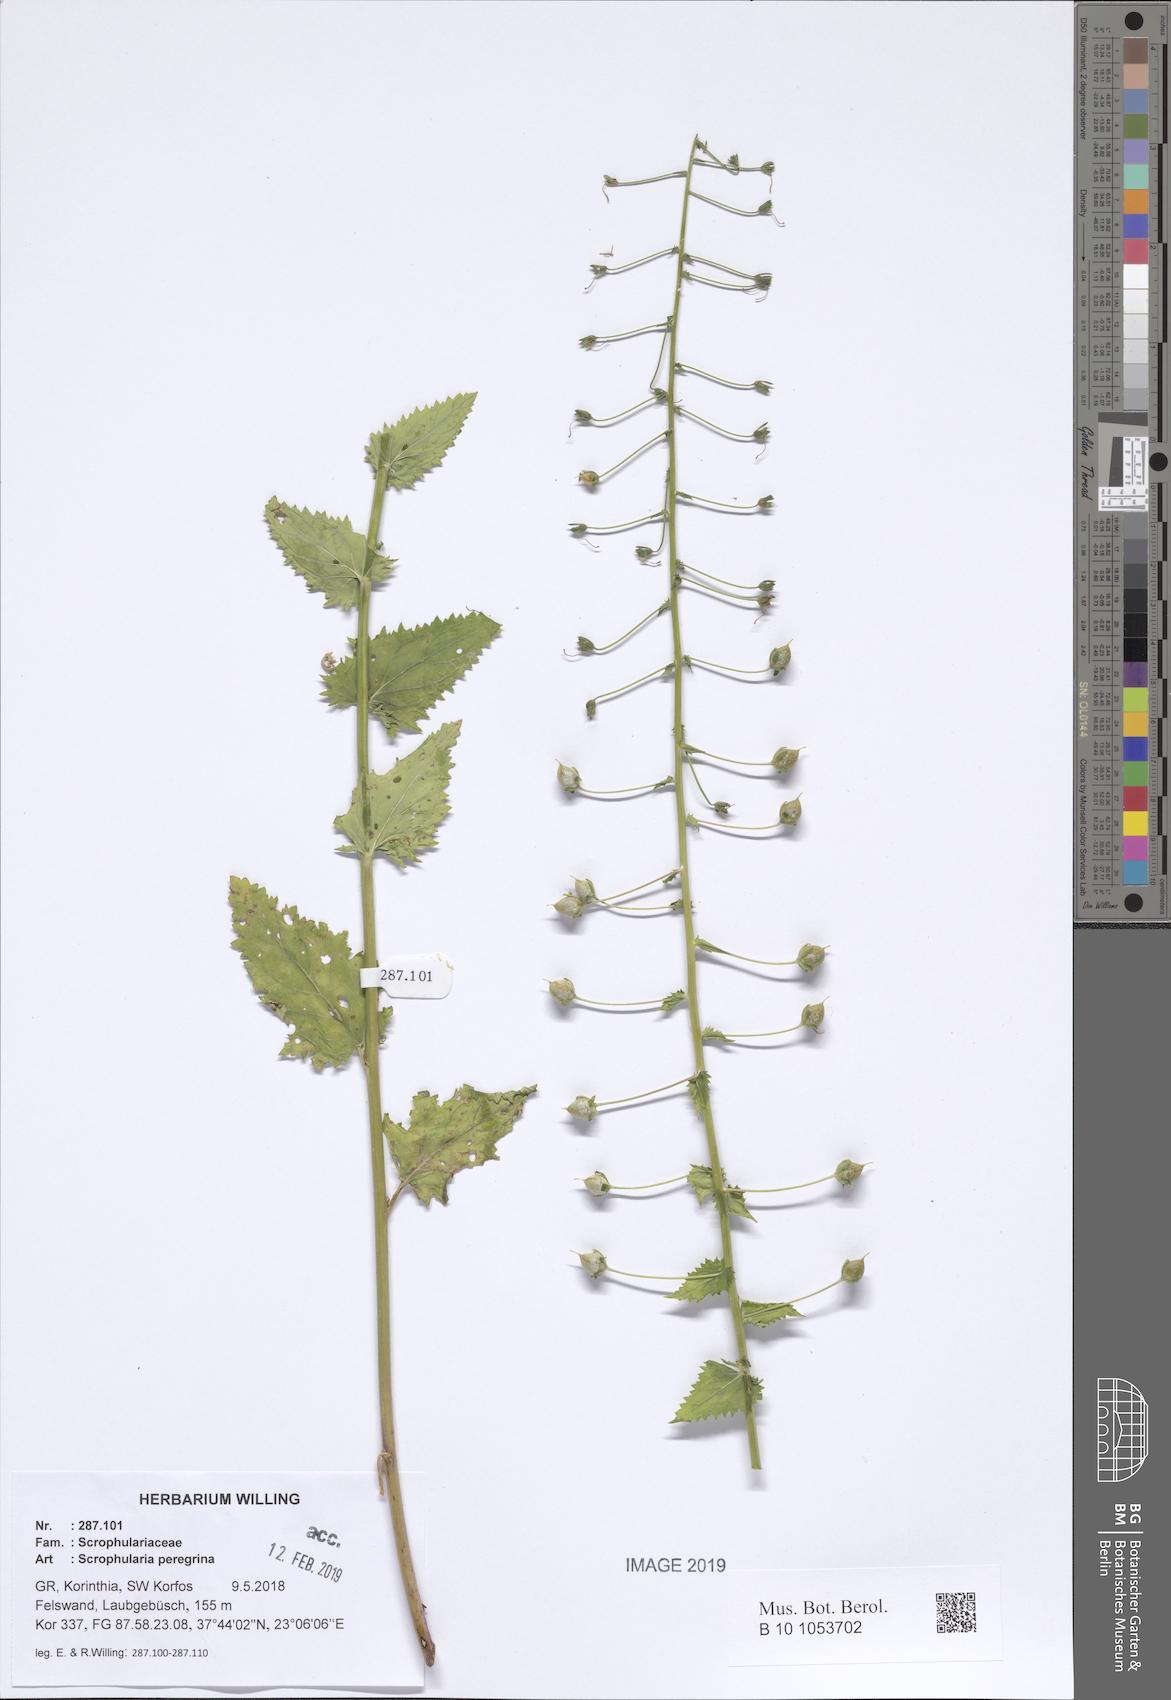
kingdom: Plantae
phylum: Tracheophyta
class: Magnoliopsida
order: Lamiales
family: Scrophulariaceae
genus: Scrophularia
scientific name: Scrophularia peregrina
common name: Mediterranean figwort
